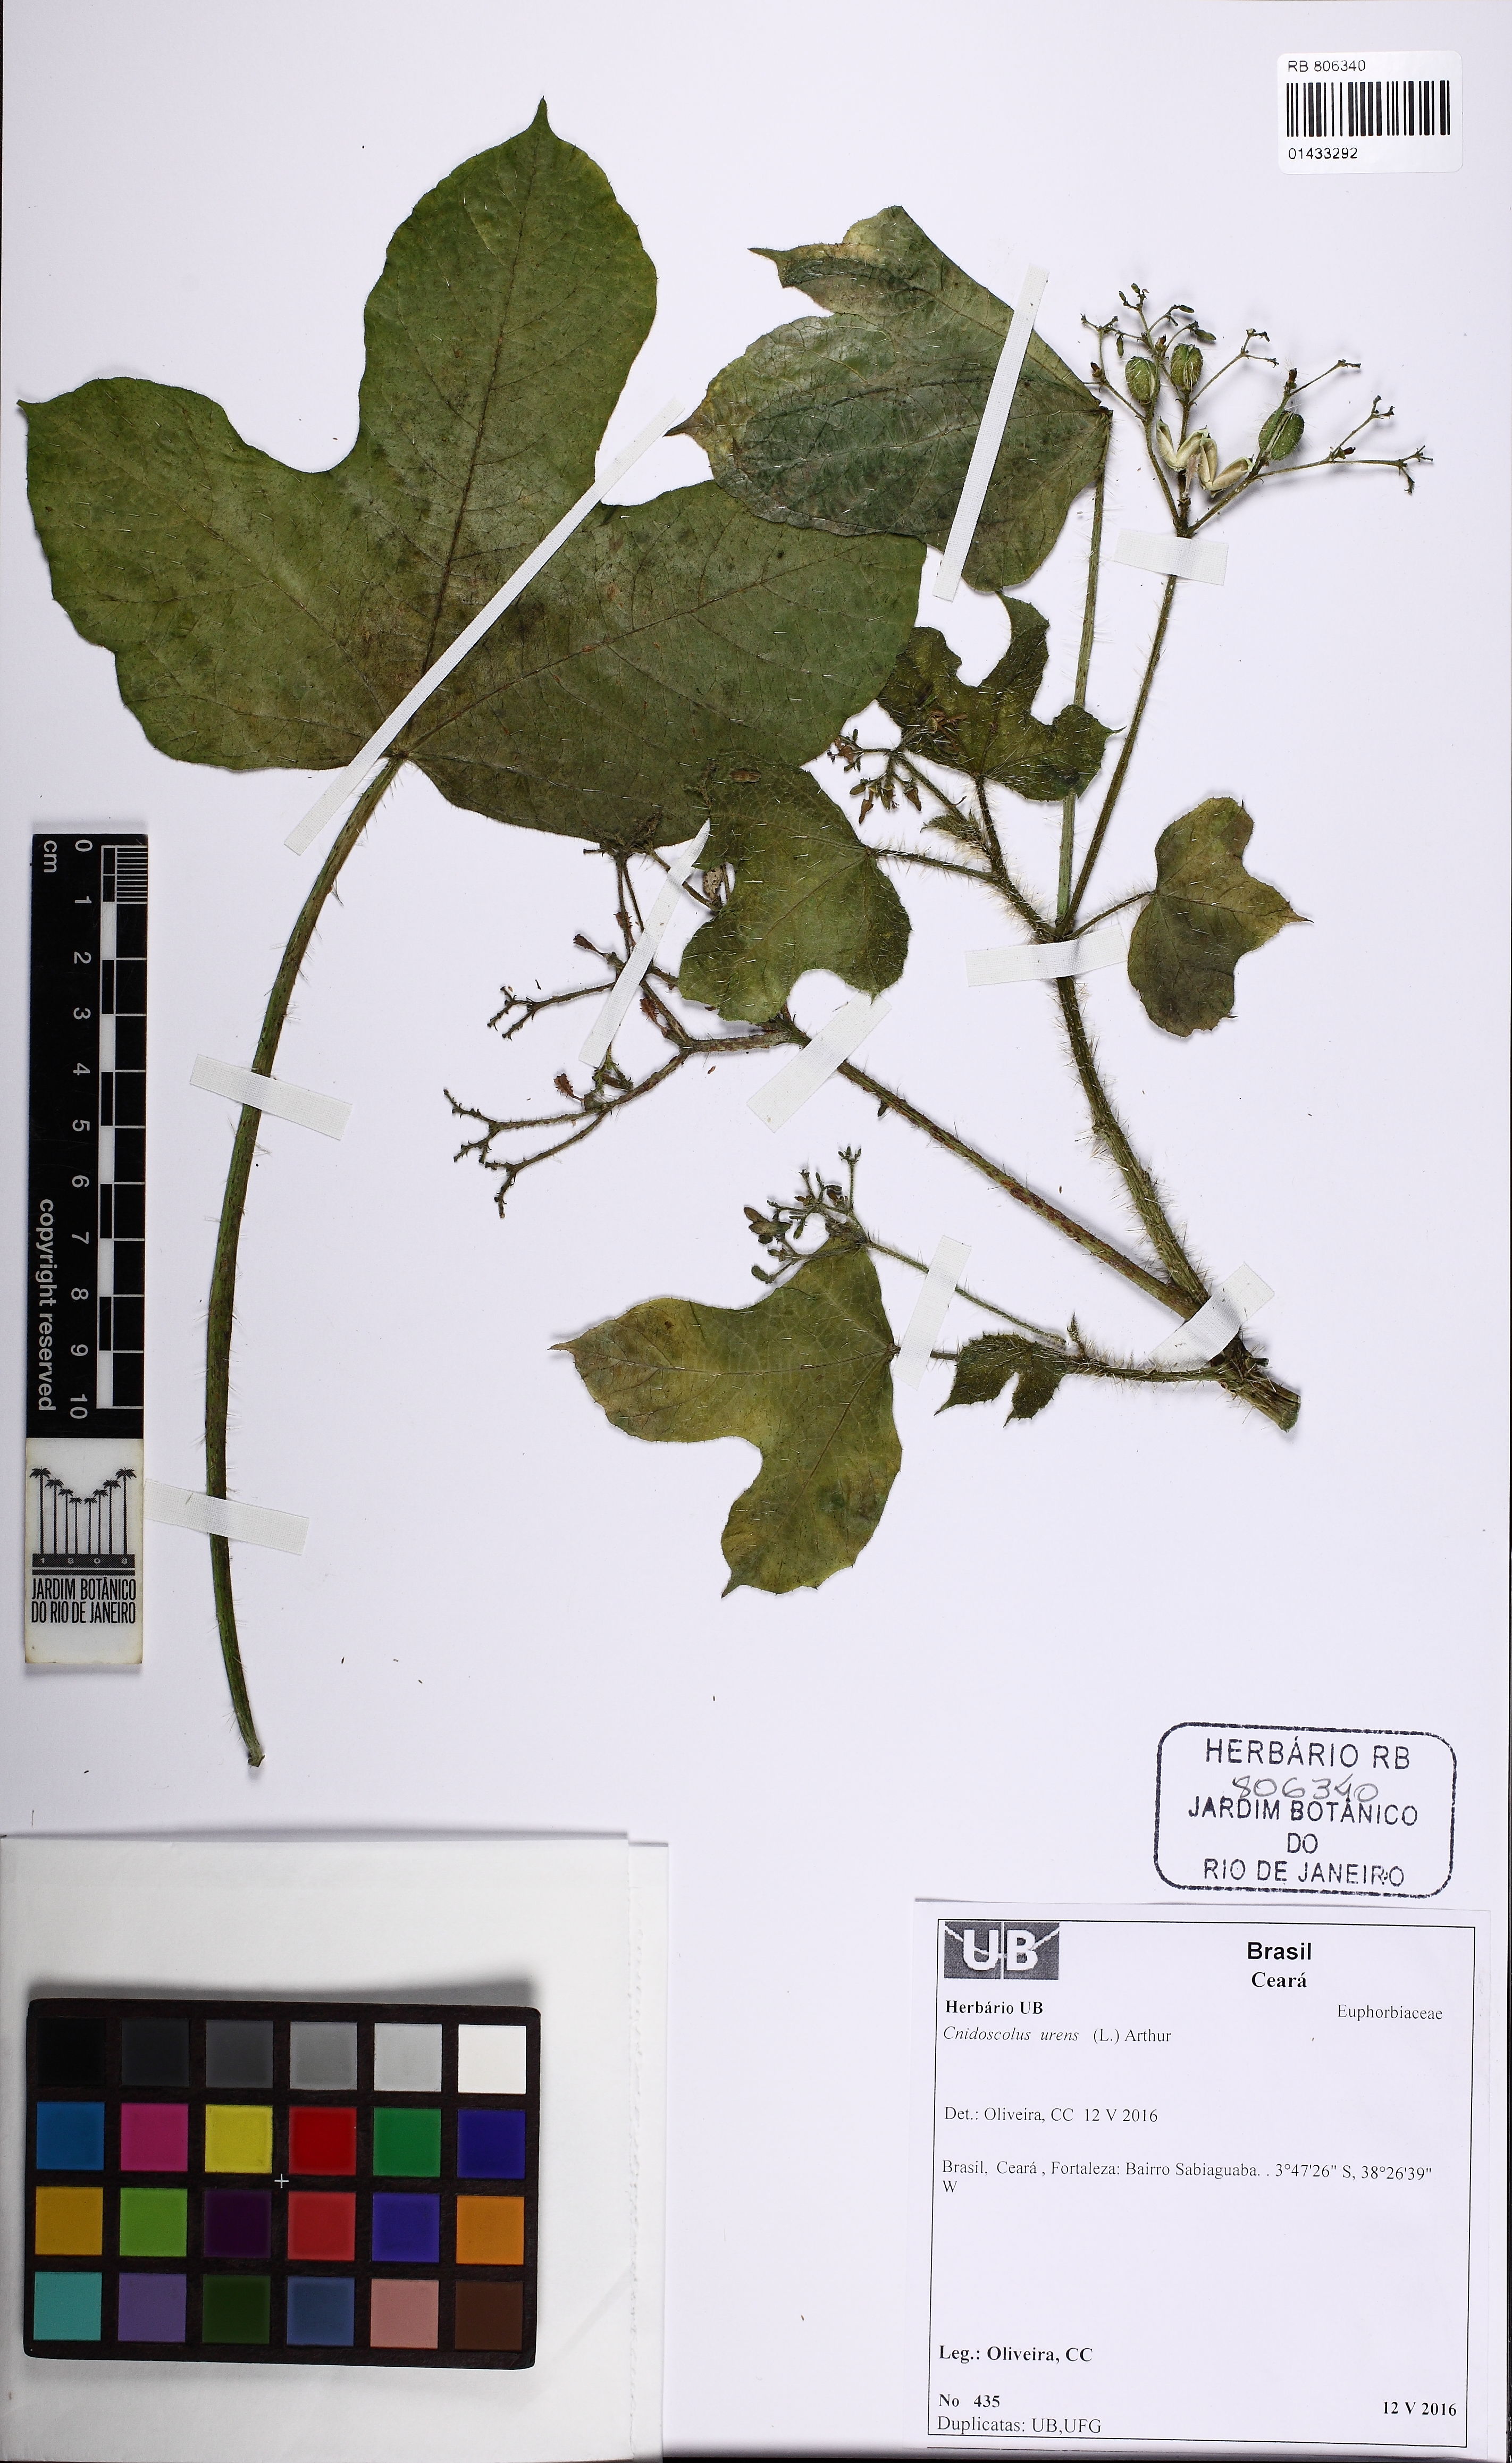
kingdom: Plantae
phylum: Tracheophyta
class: Magnoliopsida
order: Malpighiales
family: Euphorbiaceae
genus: Cnidoscolus
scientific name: Cnidoscolus urens
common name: Bull-nettle
